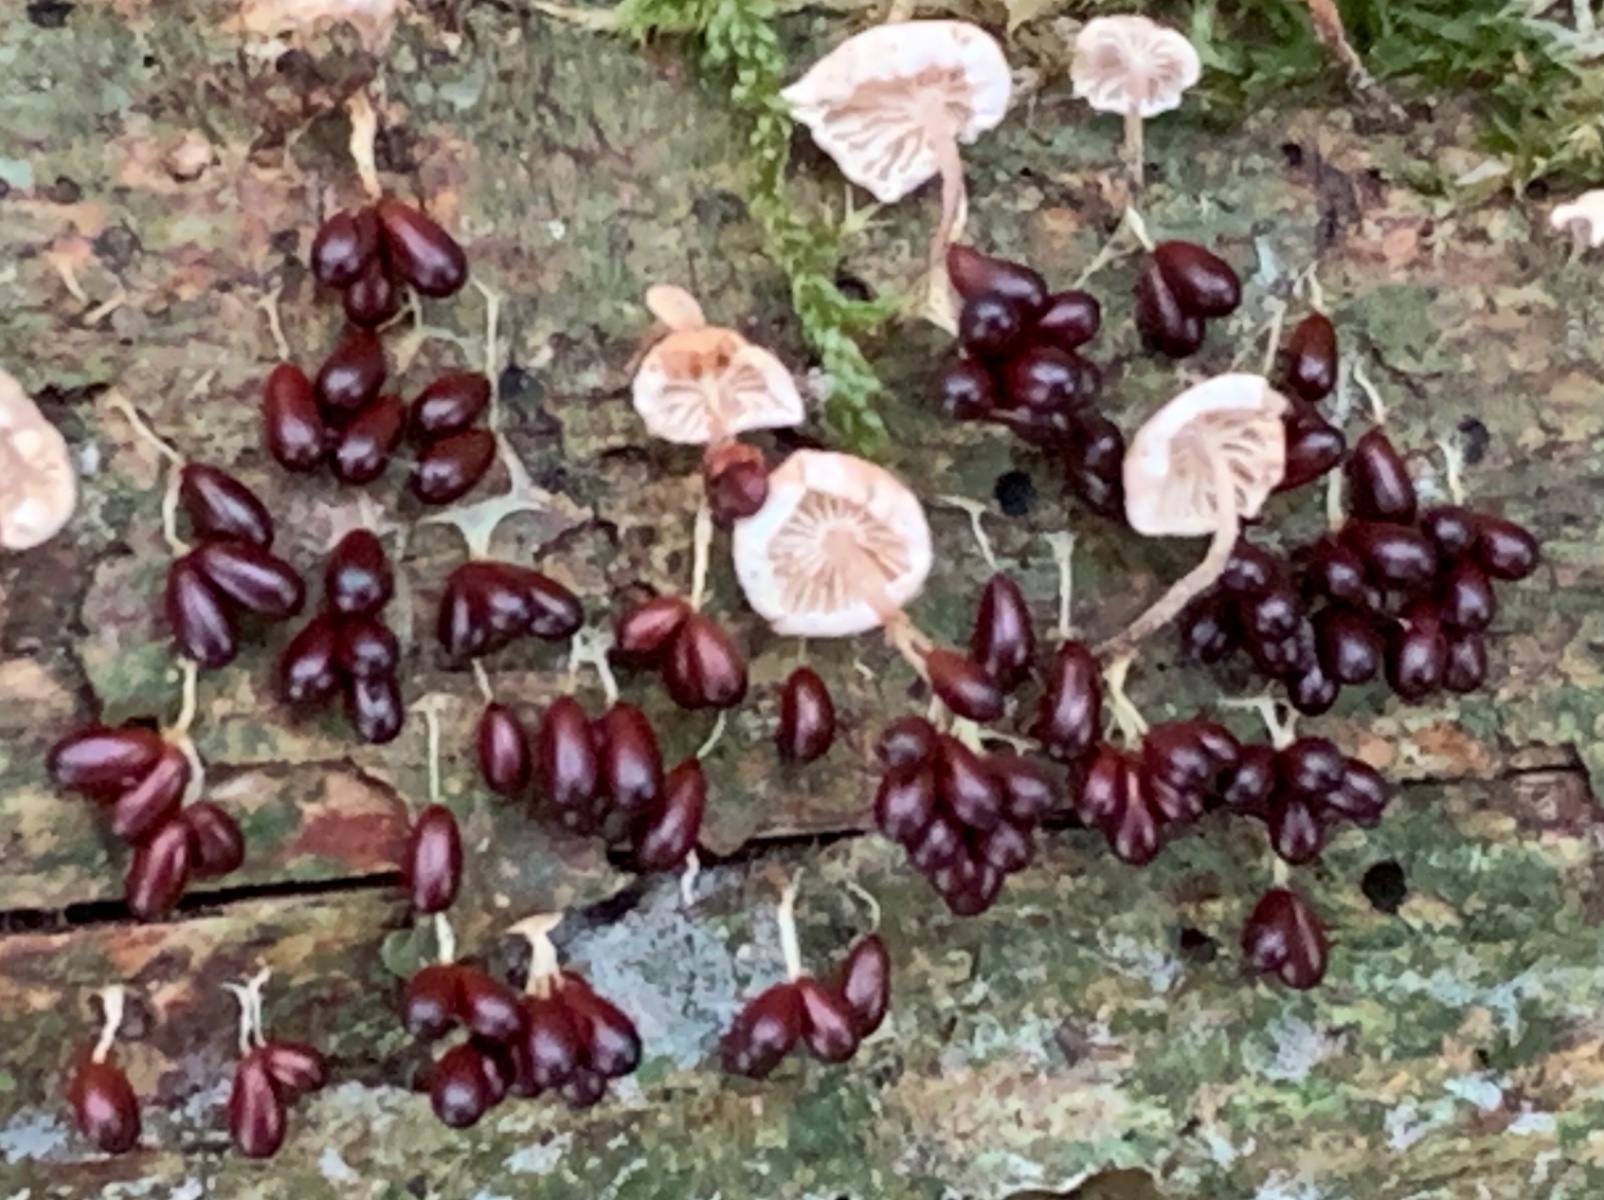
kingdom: Protozoa
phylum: Mycetozoa
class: Myxomycetes
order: Physarales
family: Physaraceae
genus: Leocarpus
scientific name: Leocarpus fragilis
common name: poleret glatfrø
